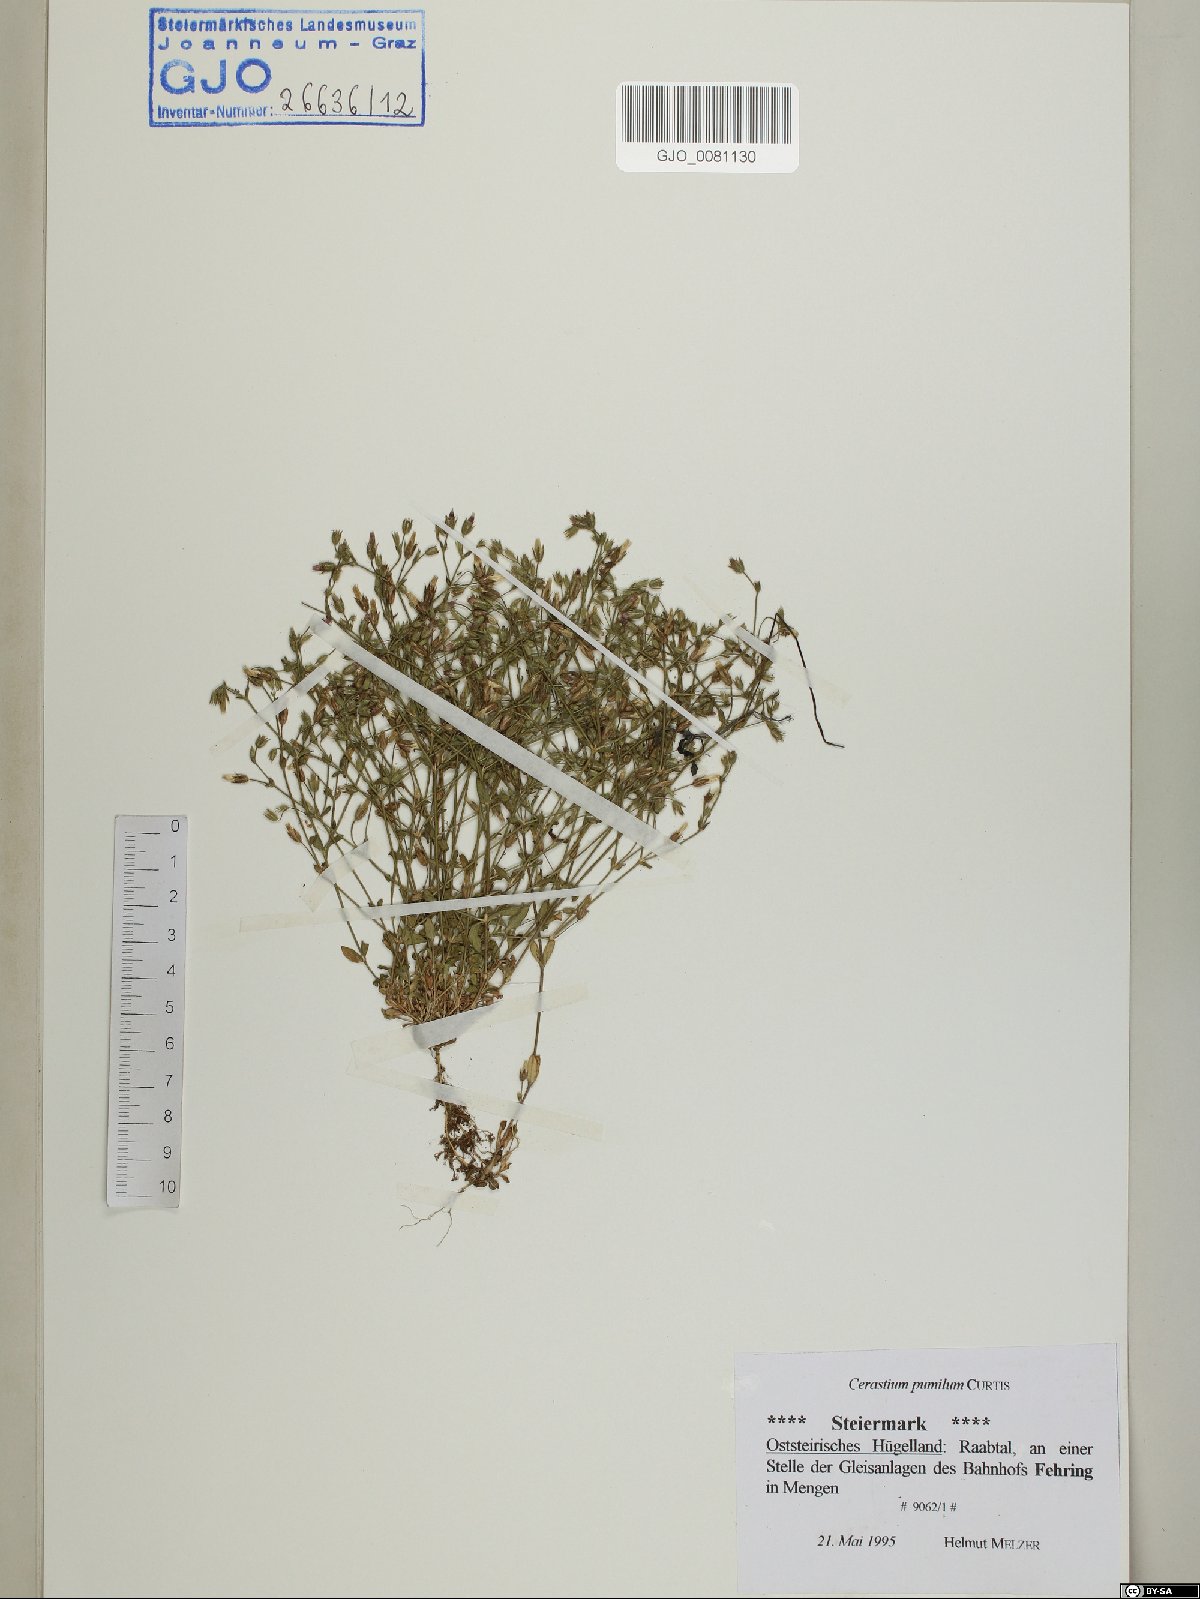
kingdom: Plantae
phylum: Tracheophyta
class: Magnoliopsida
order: Caryophyllales
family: Caryophyllaceae
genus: Cerastium
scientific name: Cerastium pumilum
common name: Dwarf mouse-ear
